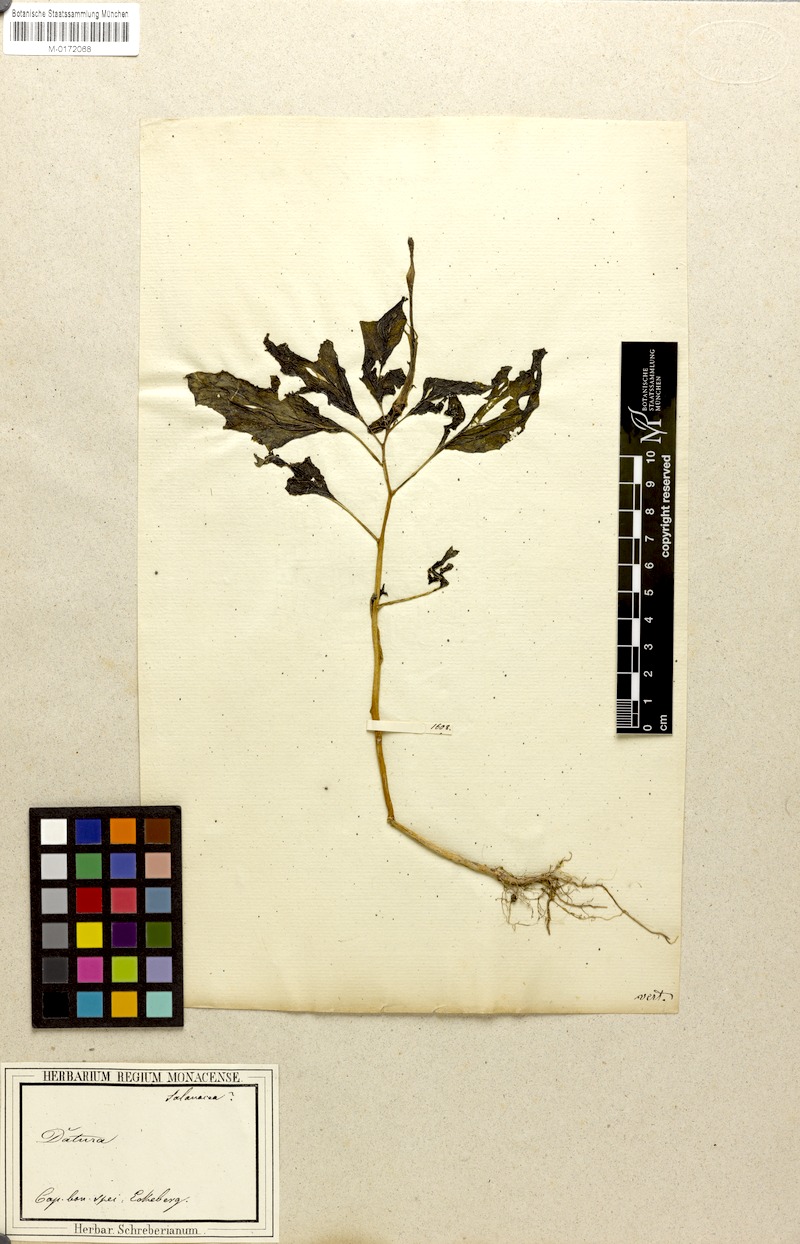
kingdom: Plantae
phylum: Tracheophyta
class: Magnoliopsida
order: Solanales
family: Solanaceae
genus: Datura
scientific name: Datura
